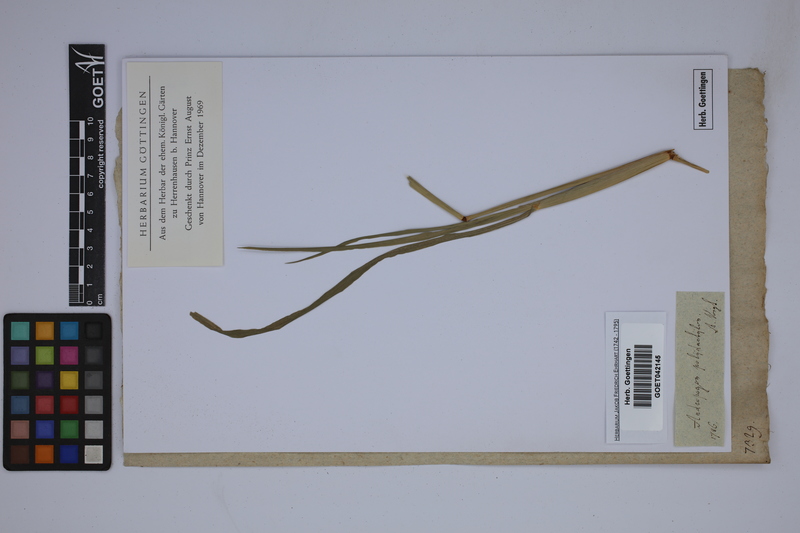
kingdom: Plantae
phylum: Tracheophyta
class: Liliopsida
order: Poales
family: Poaceae
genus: Stapfochloa
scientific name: Stapfochloa elata
